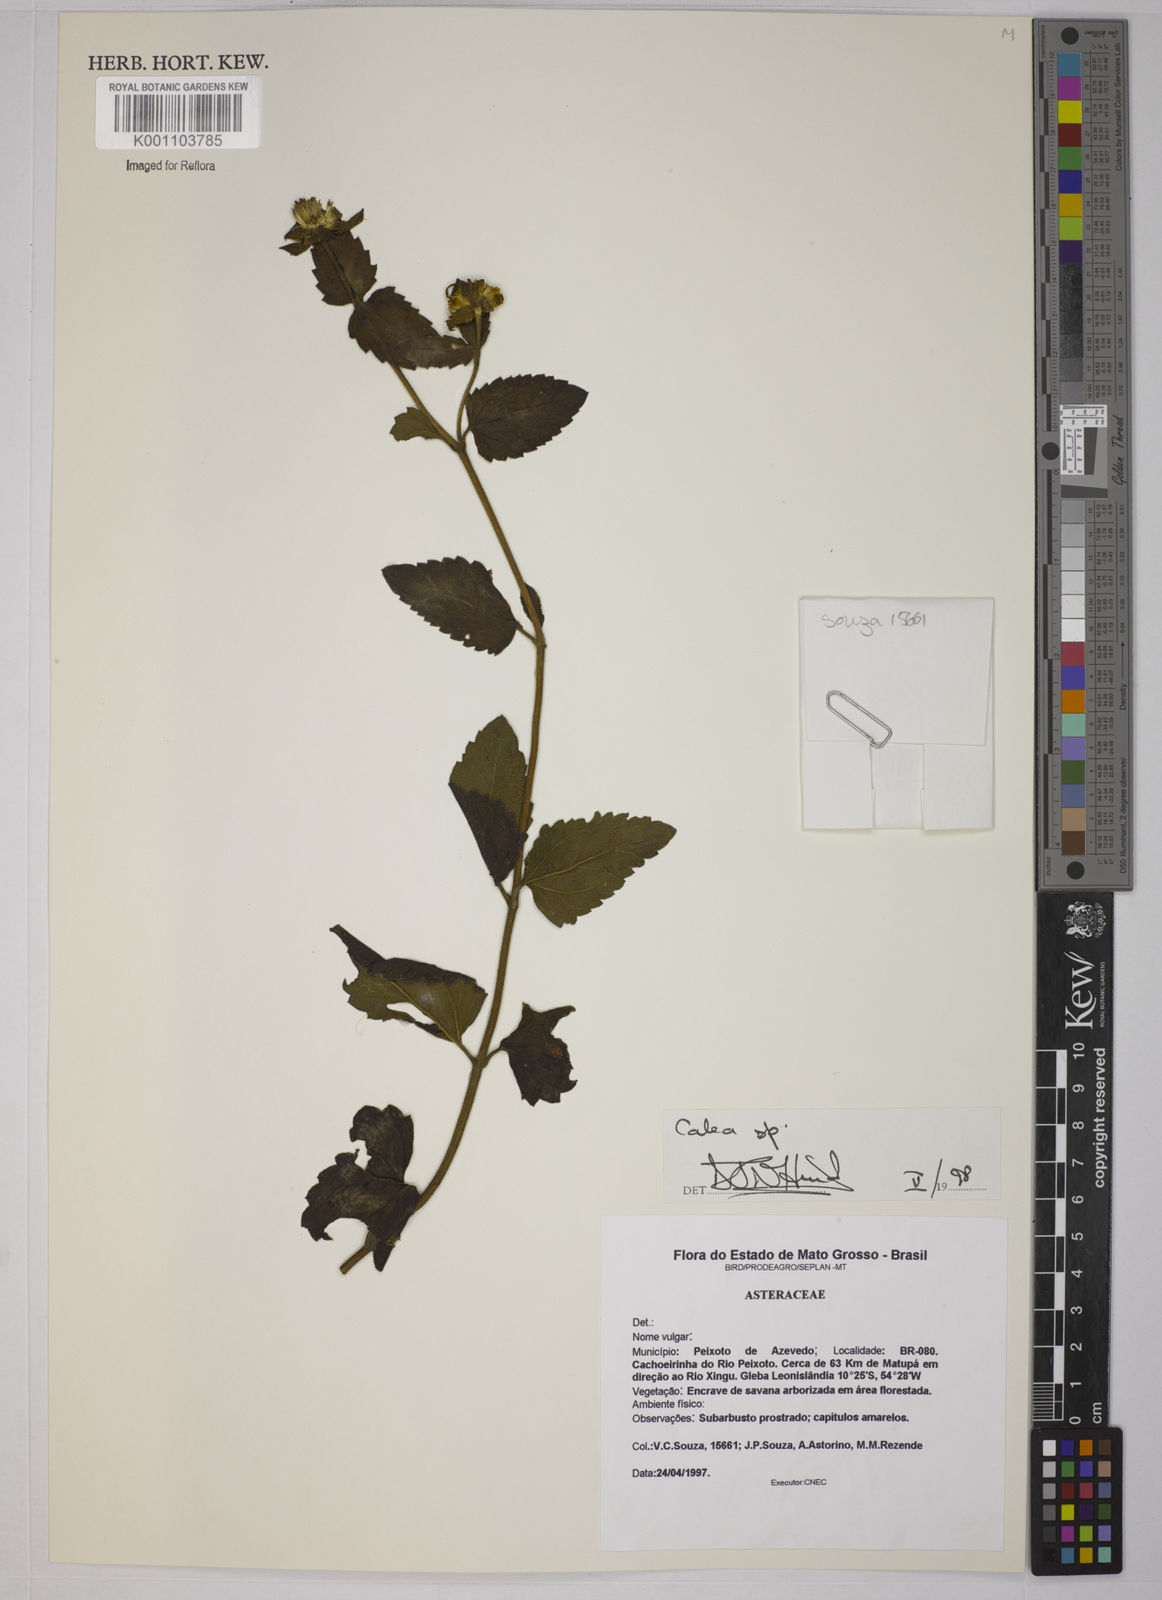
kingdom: Plantae
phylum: Tracheophyta
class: Magnoliopsida
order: Asterales
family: Asteraceae
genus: Calea
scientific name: Calea
